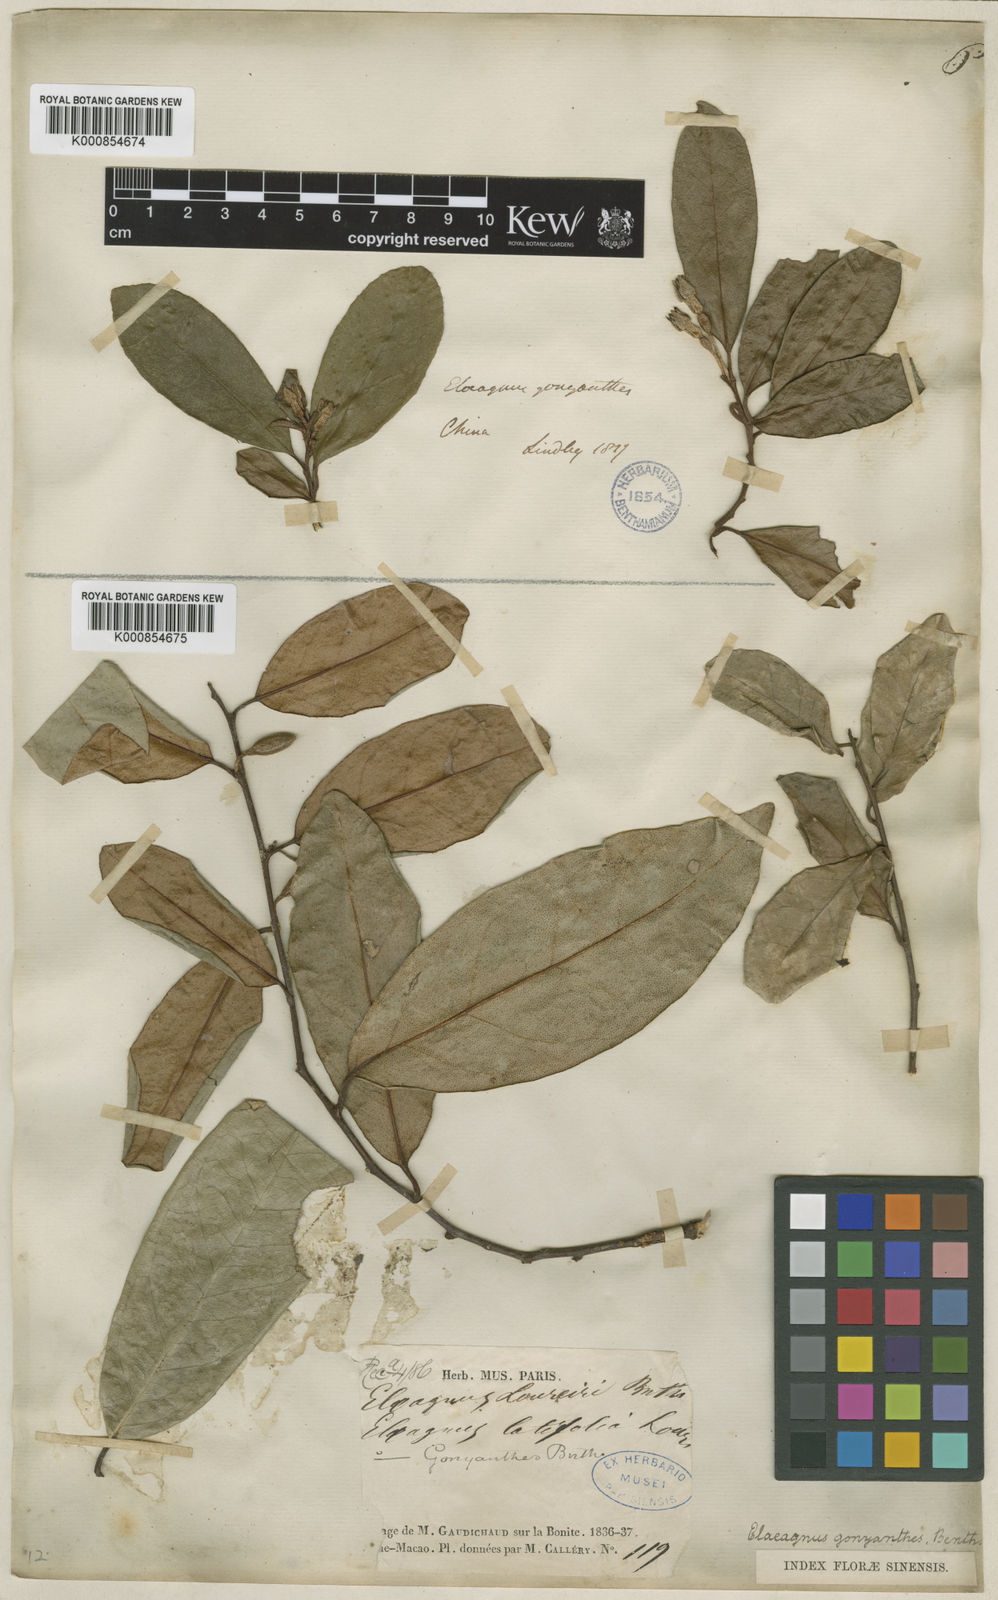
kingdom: Plantae
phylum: Tracheophyta
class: Magnoliopsida
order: Rosales
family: Elaeagnaceae
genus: Elaeagnus
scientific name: Elaeagnus conferta
